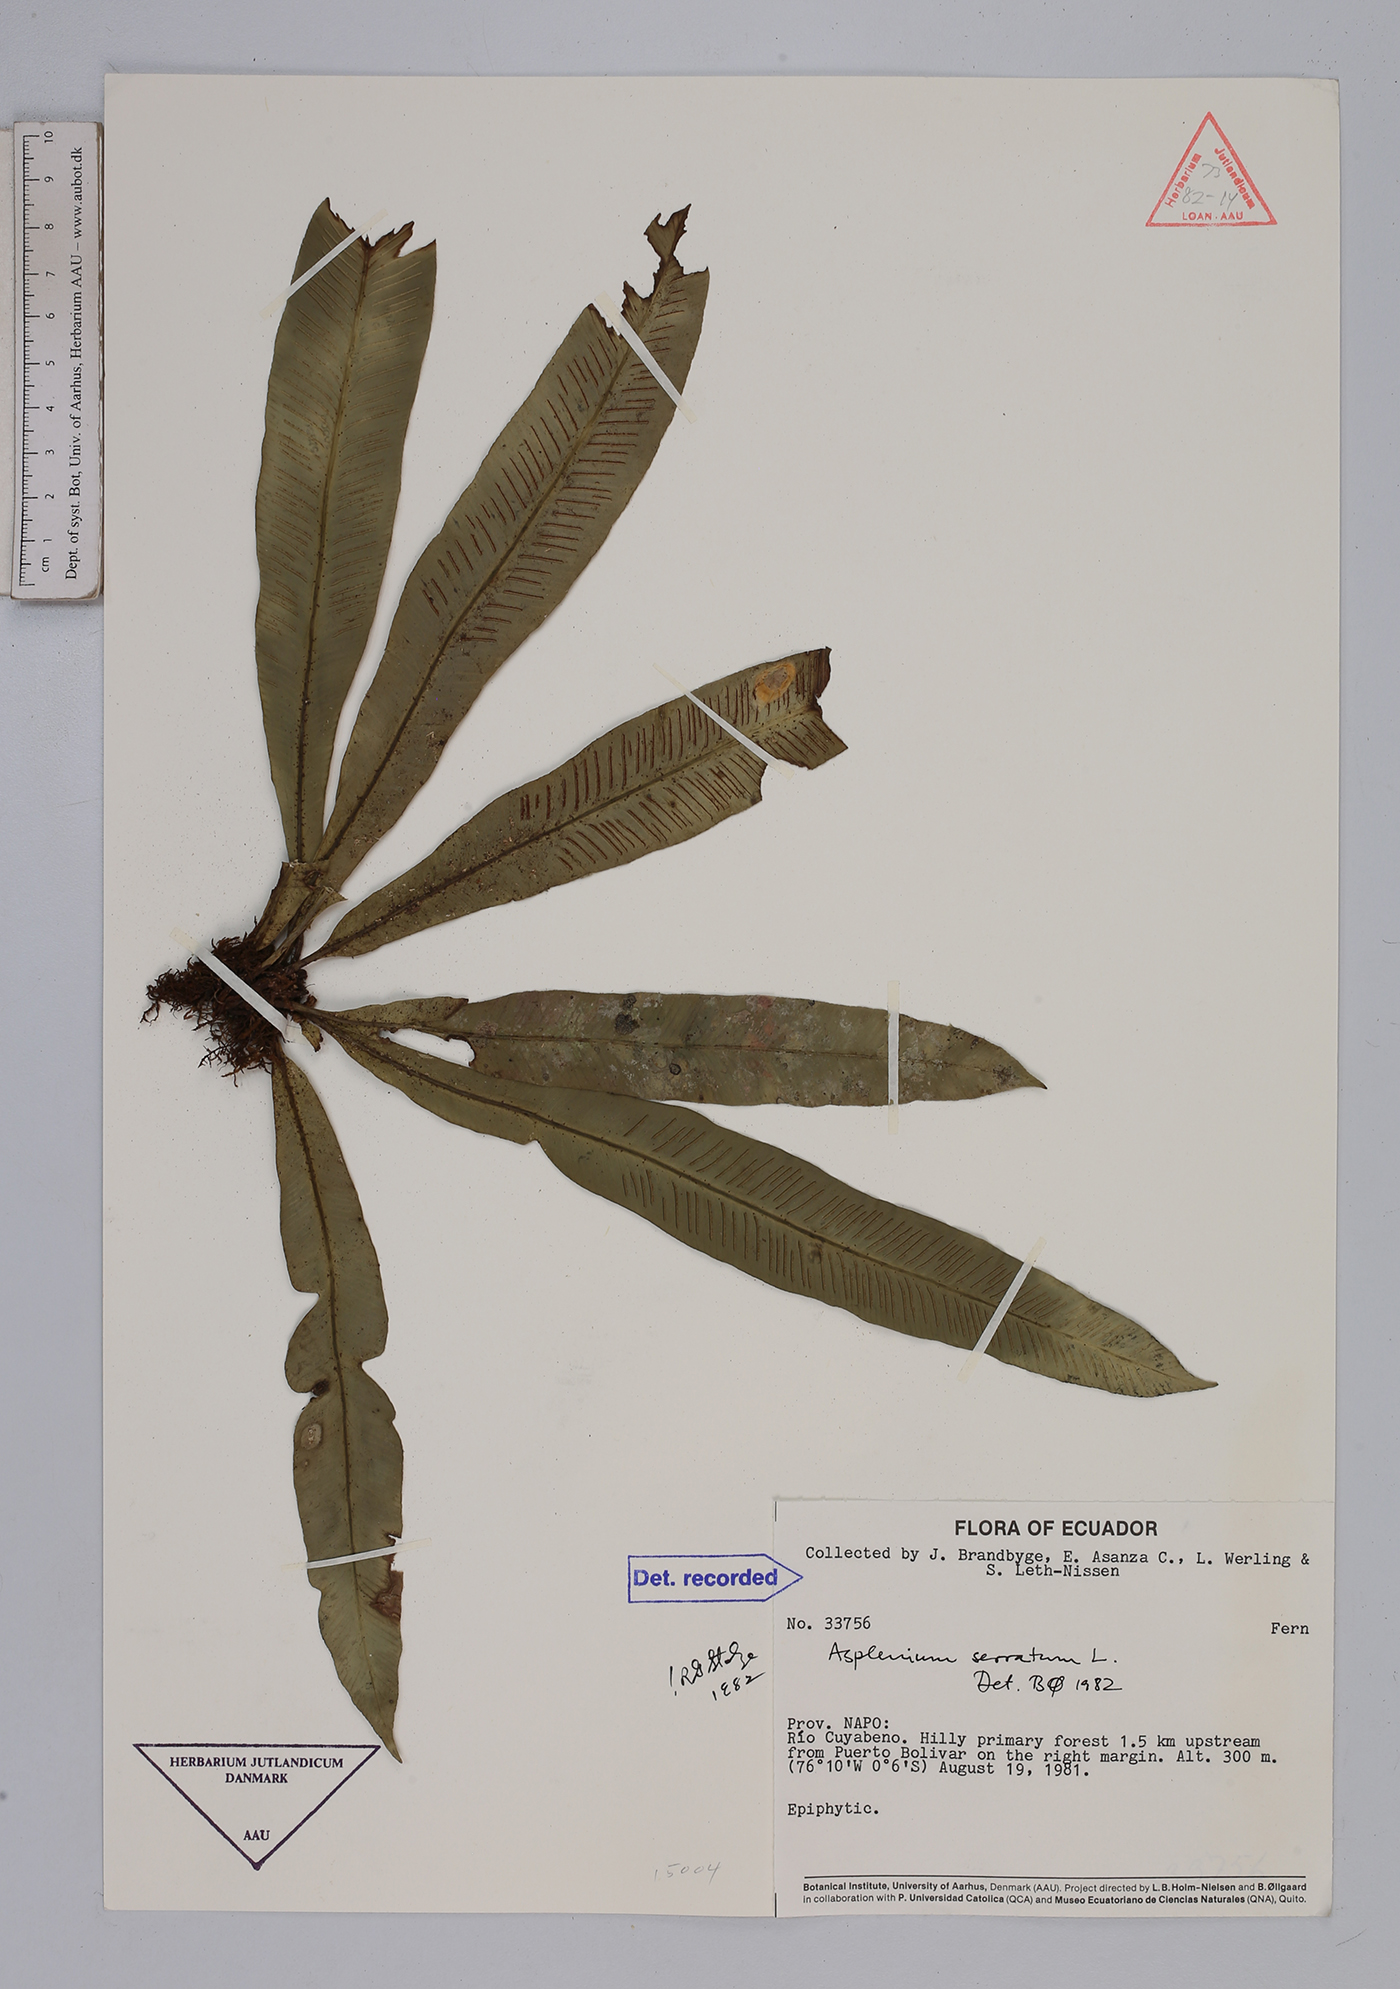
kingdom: Plantae
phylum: Tracheophyta
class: Polypodiopsida
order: Polypodiales
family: Aspleniaceae
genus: Asplenium
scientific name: Asplenium serratum
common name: Wild birdnest fern
